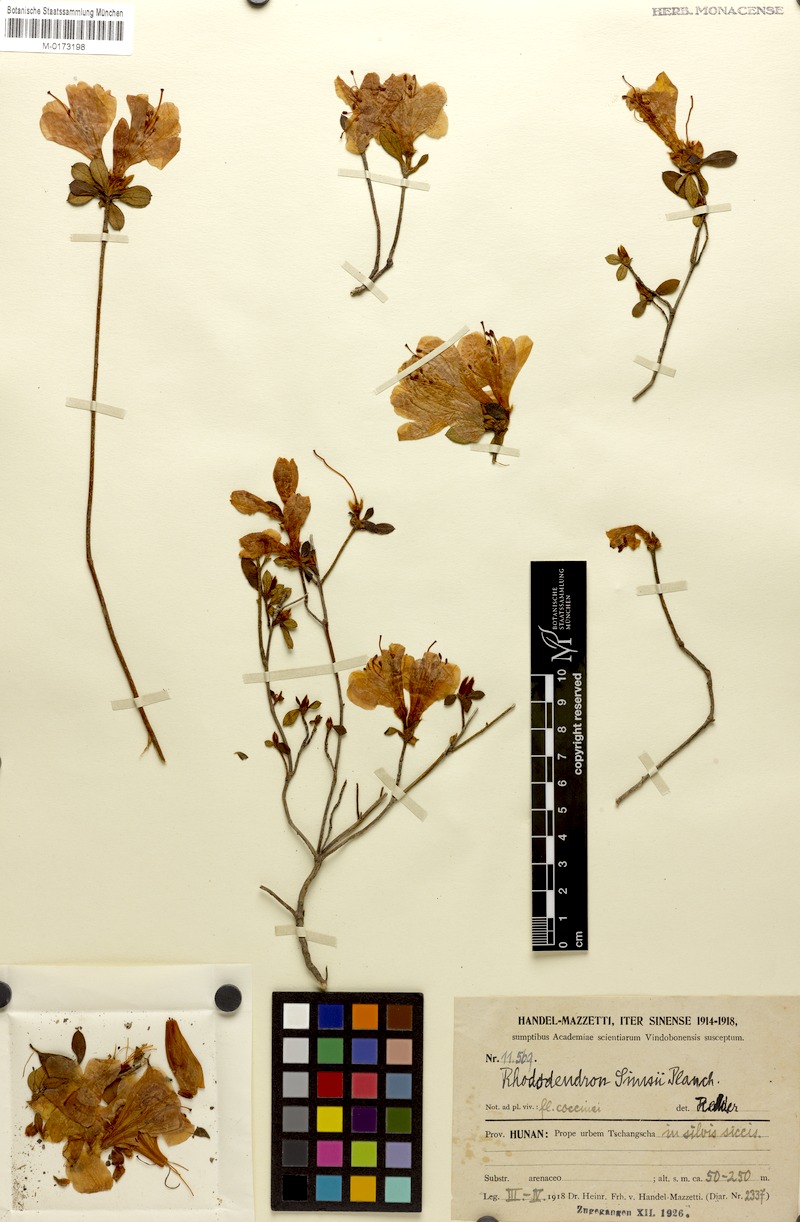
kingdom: Plantae
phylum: Tracheophyta
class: Magnoliopsida
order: Ericales
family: Ericaceae
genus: Rhododendron
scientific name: Rhododendron simsii
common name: Rhododendron
